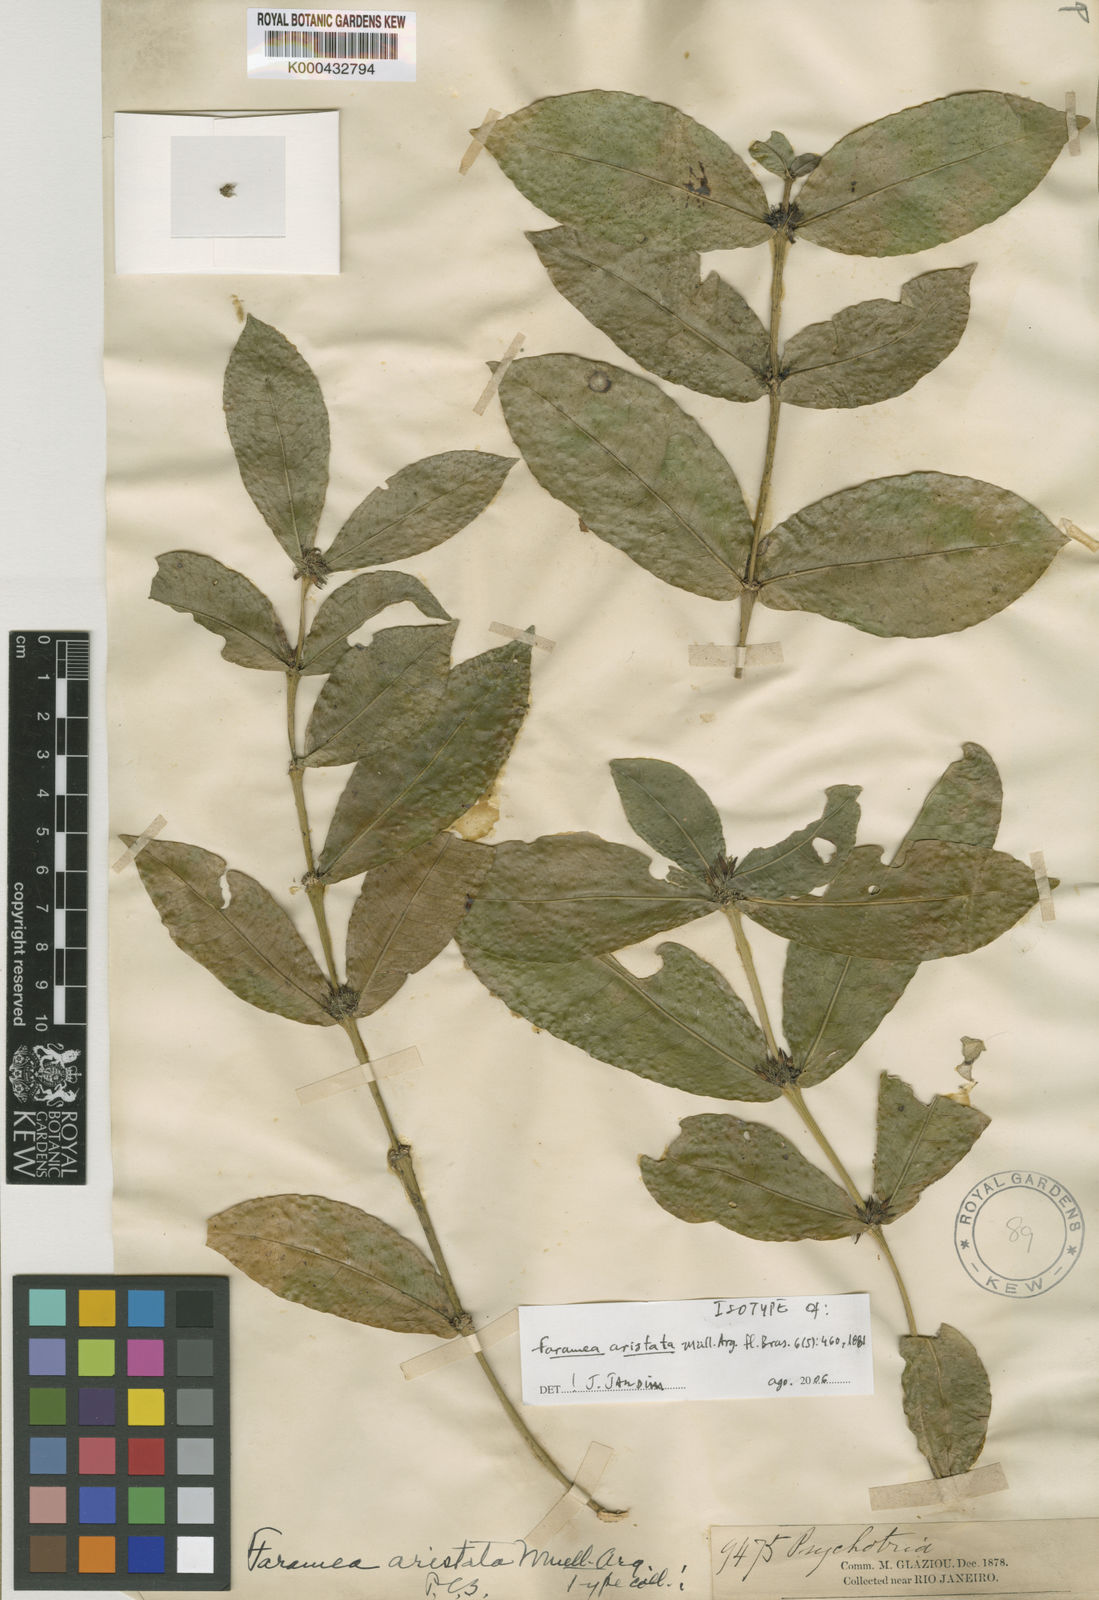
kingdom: Plantae
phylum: Tracheophyta
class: Magnoliopsida
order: Gentianales
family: Rubiaceae
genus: Faramea
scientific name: Faramea
